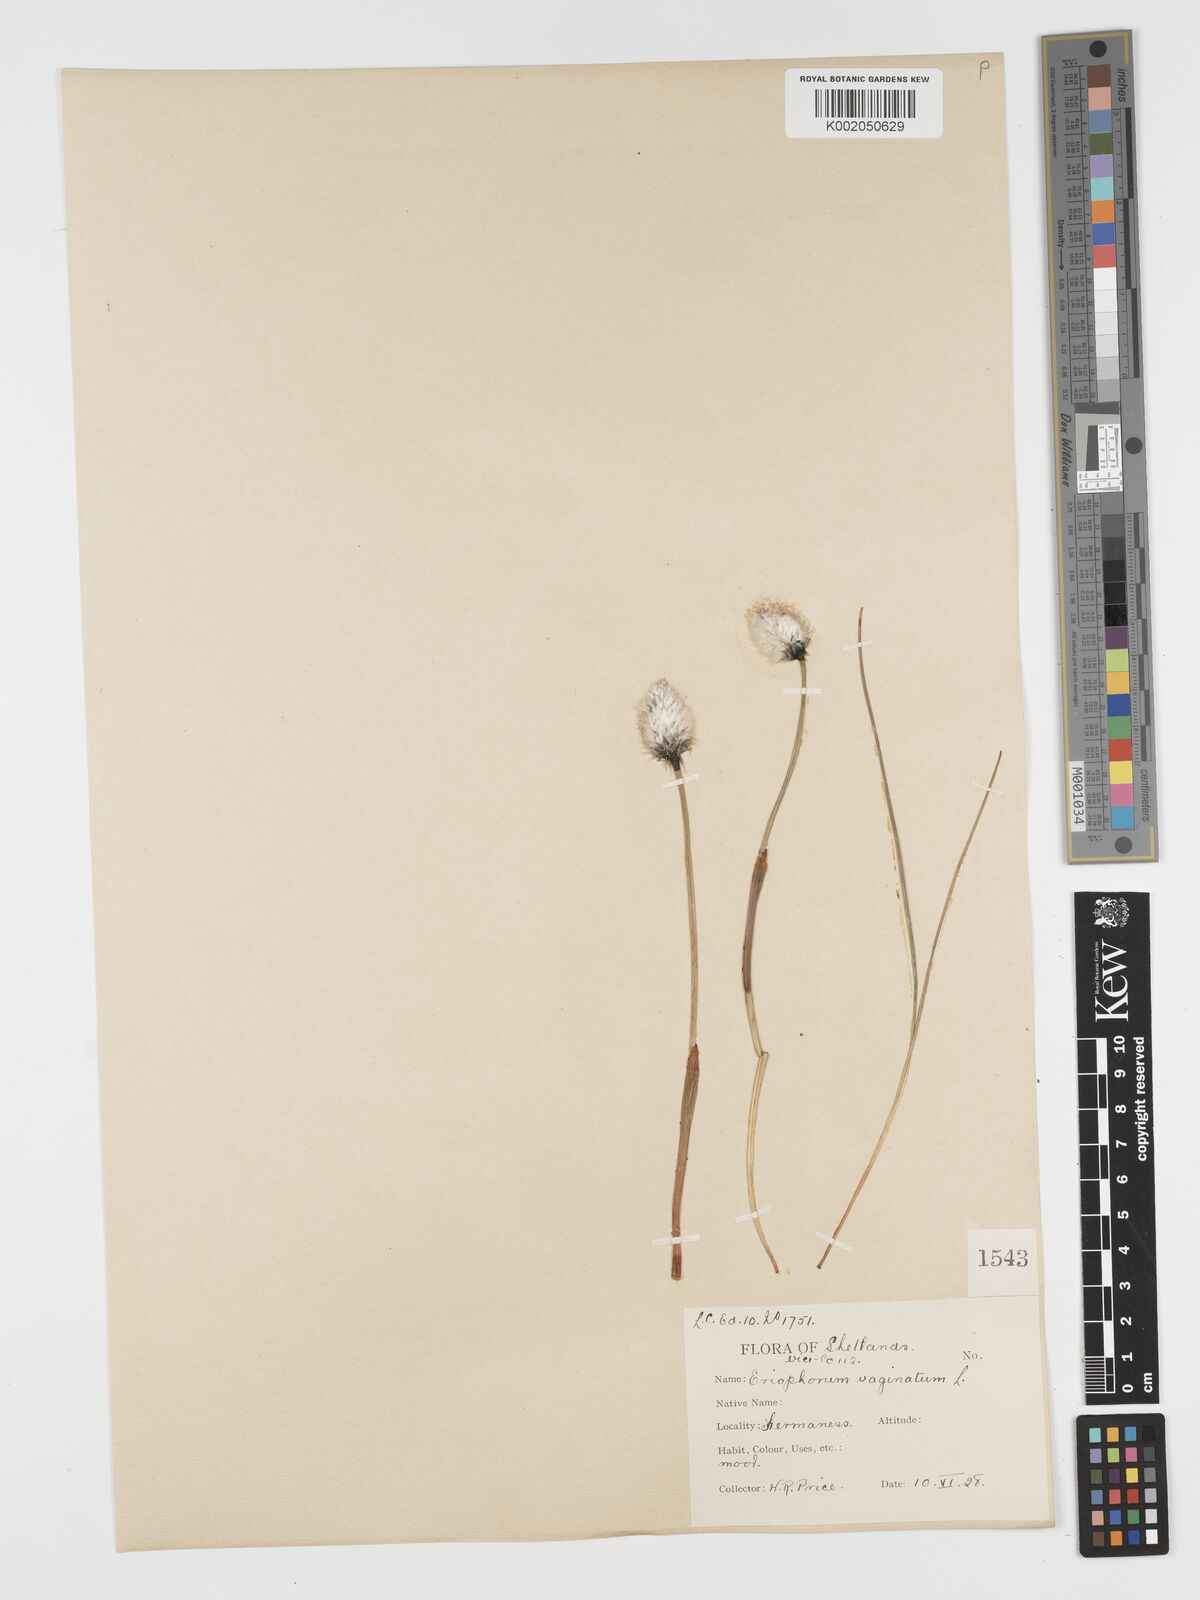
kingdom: Plantae
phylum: Tracheophyta
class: Liliopsida
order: Poales
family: Cyperaceae
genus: Eriophorum
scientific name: Eriophorum vaginatum
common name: Hare's-tail cottongrass
